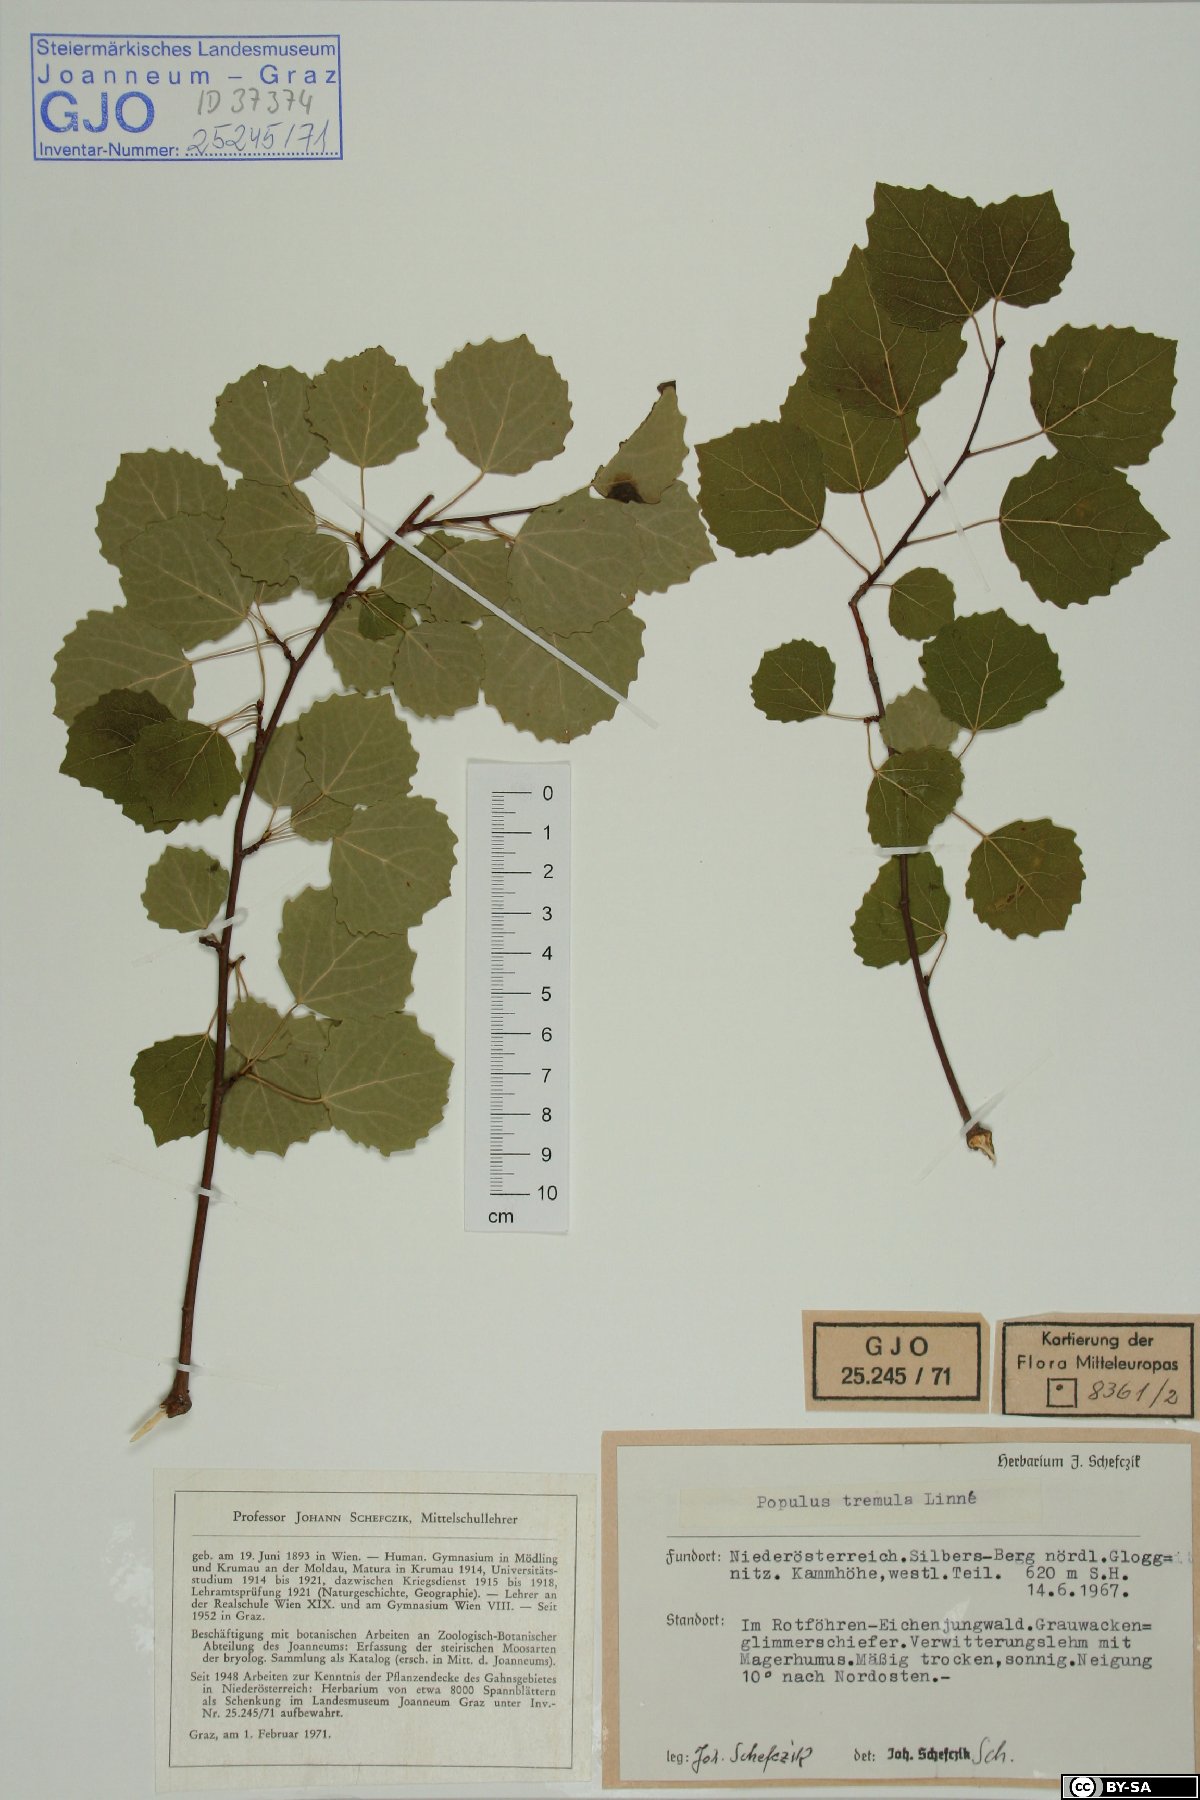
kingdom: Plantae
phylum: Tracheophyta
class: Magnoliopsida
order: Malpighiales
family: Salicaceae
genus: Populus
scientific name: Populus tremula
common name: European aspen
